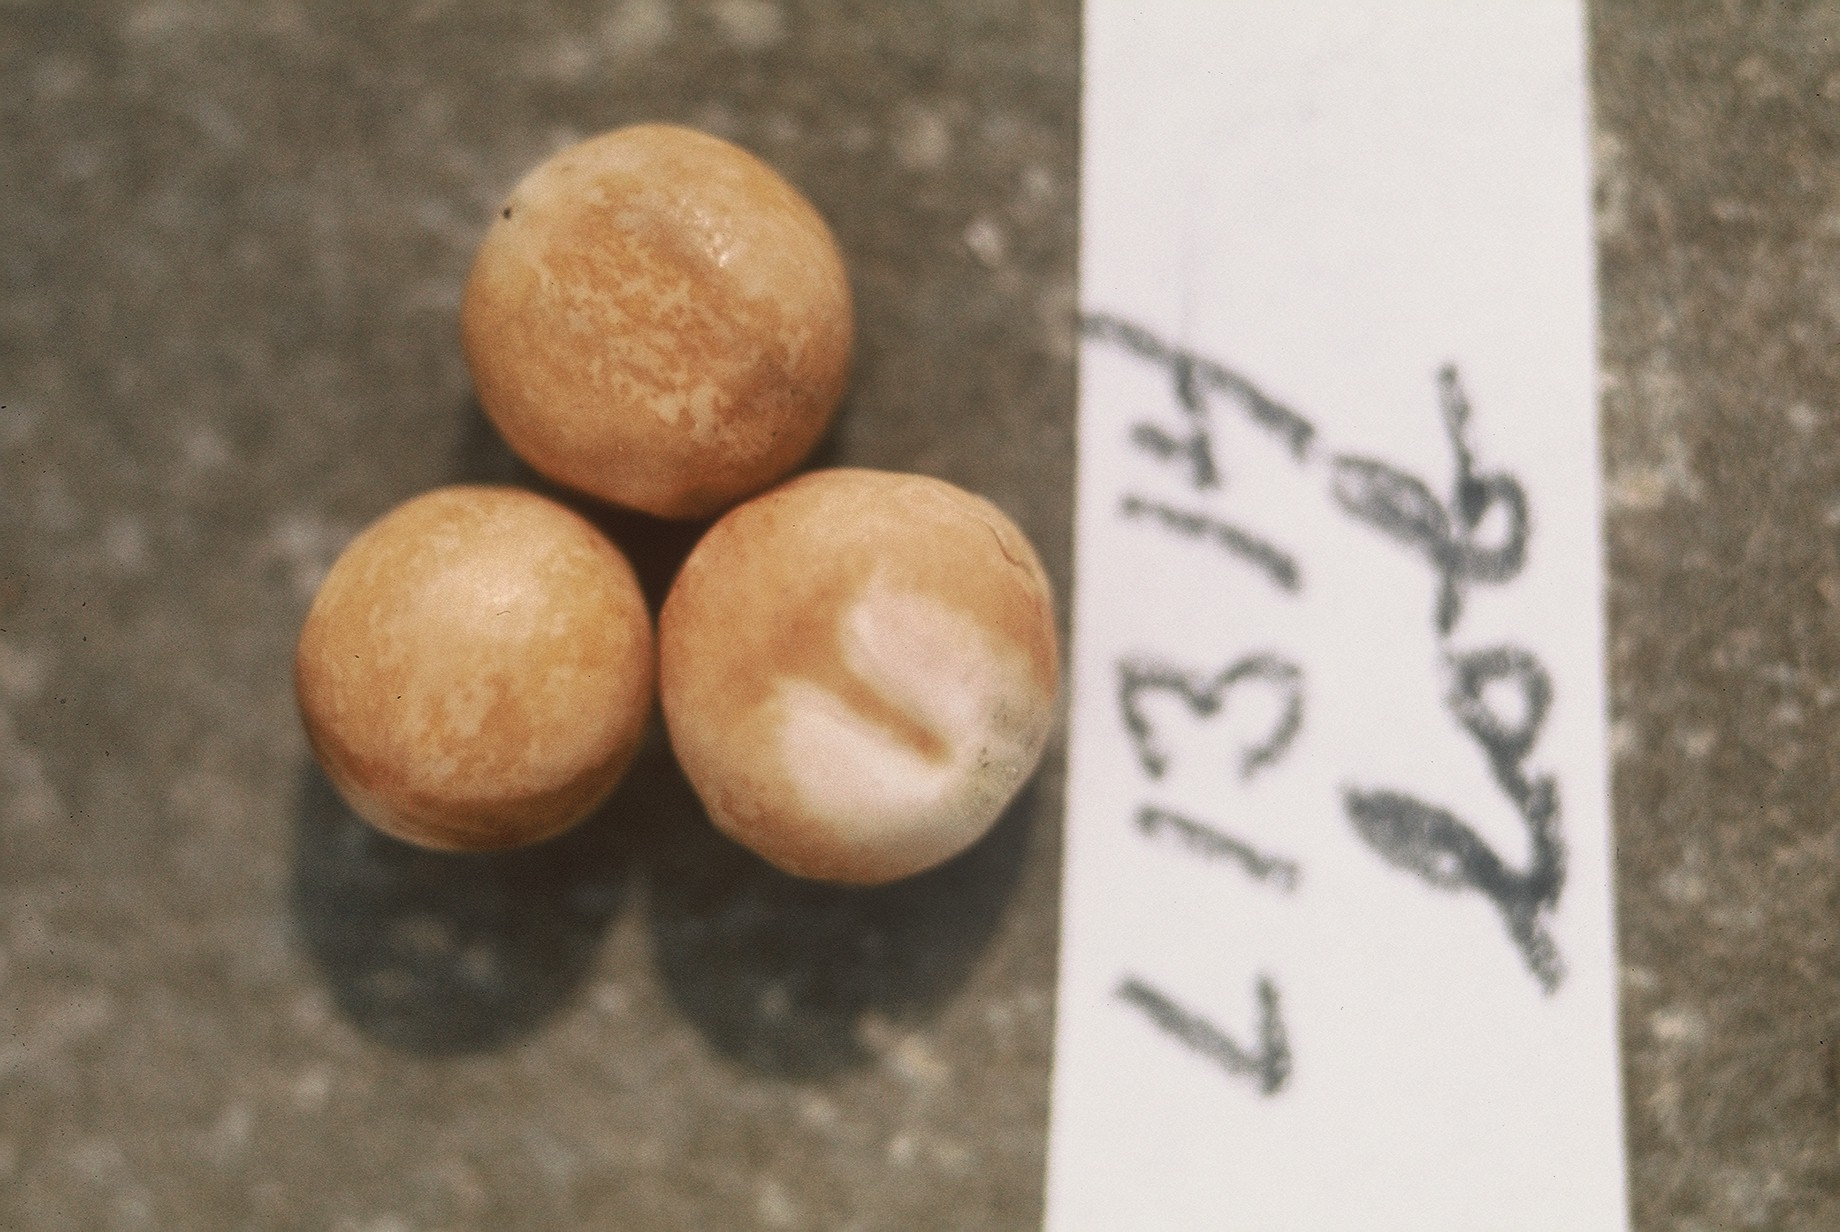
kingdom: Plantae
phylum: Tracheophyta
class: Magnoliopsida
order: Fabales
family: Fabaceae
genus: Lathyrus
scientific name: Lathyrus oleraceus
